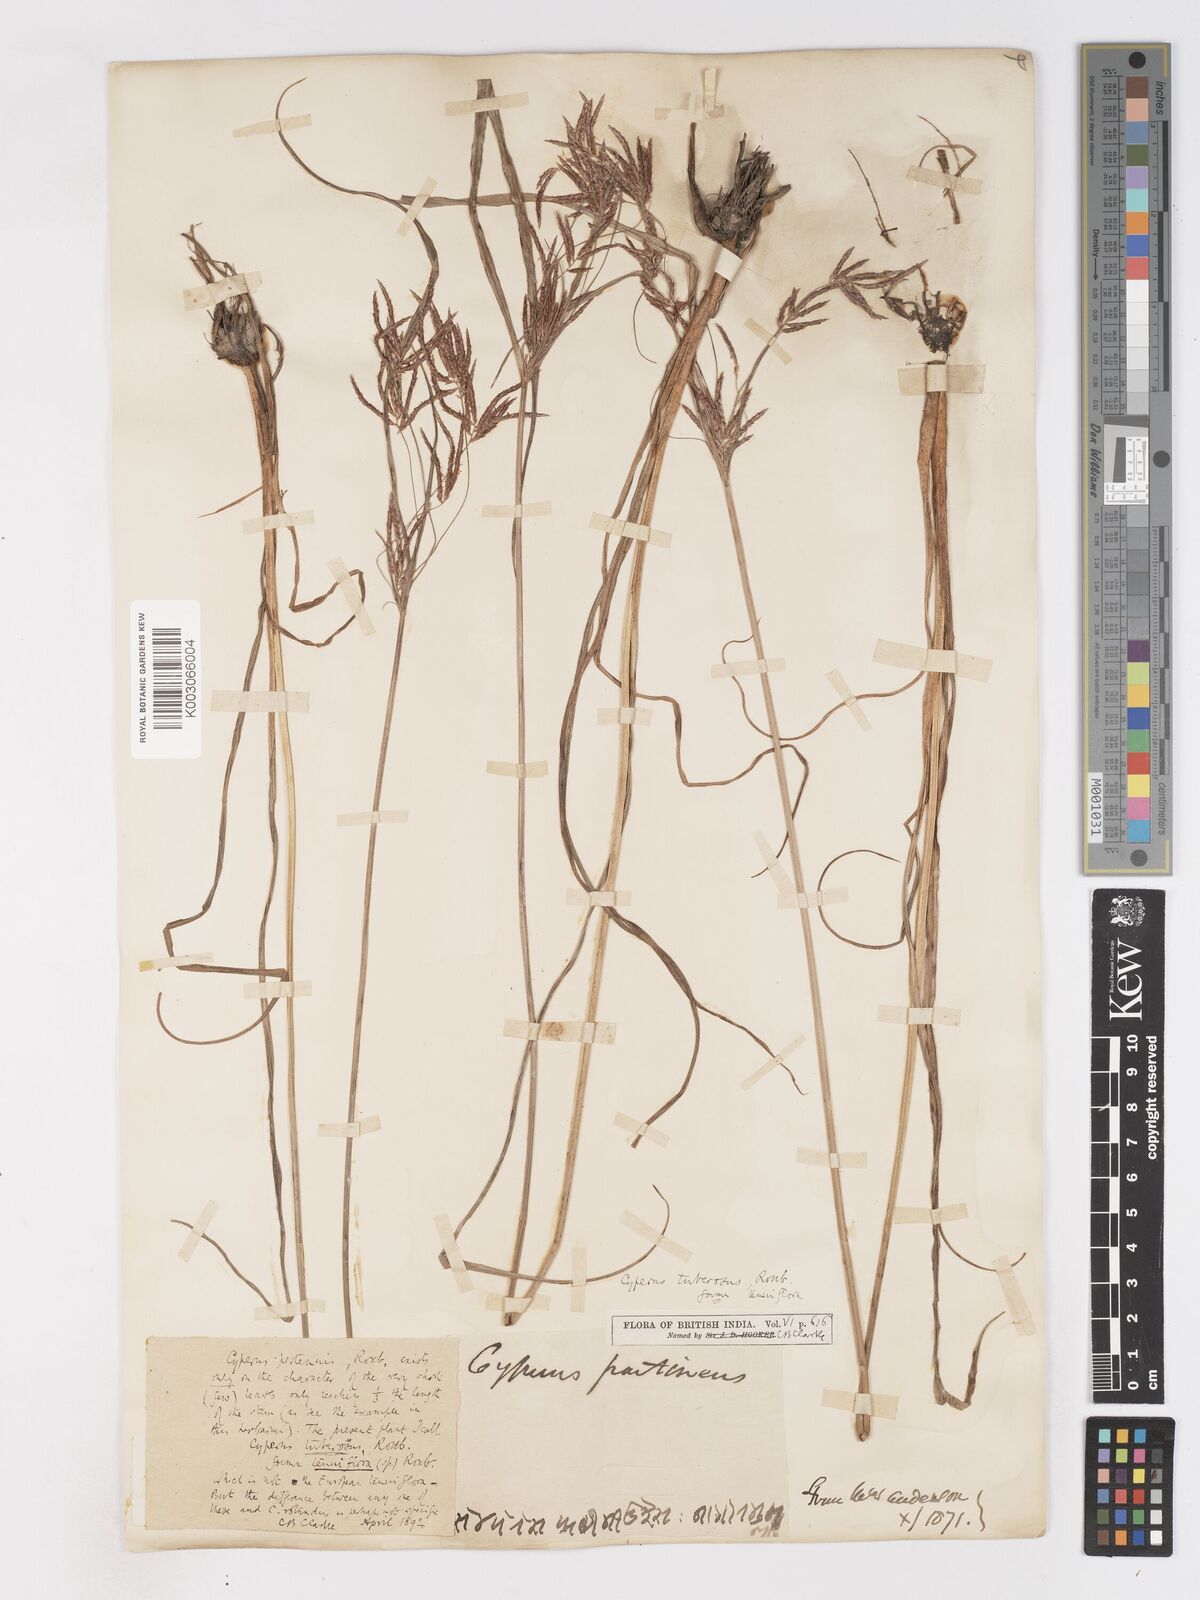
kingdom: Plantae
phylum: Tracheophyta
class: Liliopsida
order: Poales
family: Cyperaceae
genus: Cyperus
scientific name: Cyperus mitis
